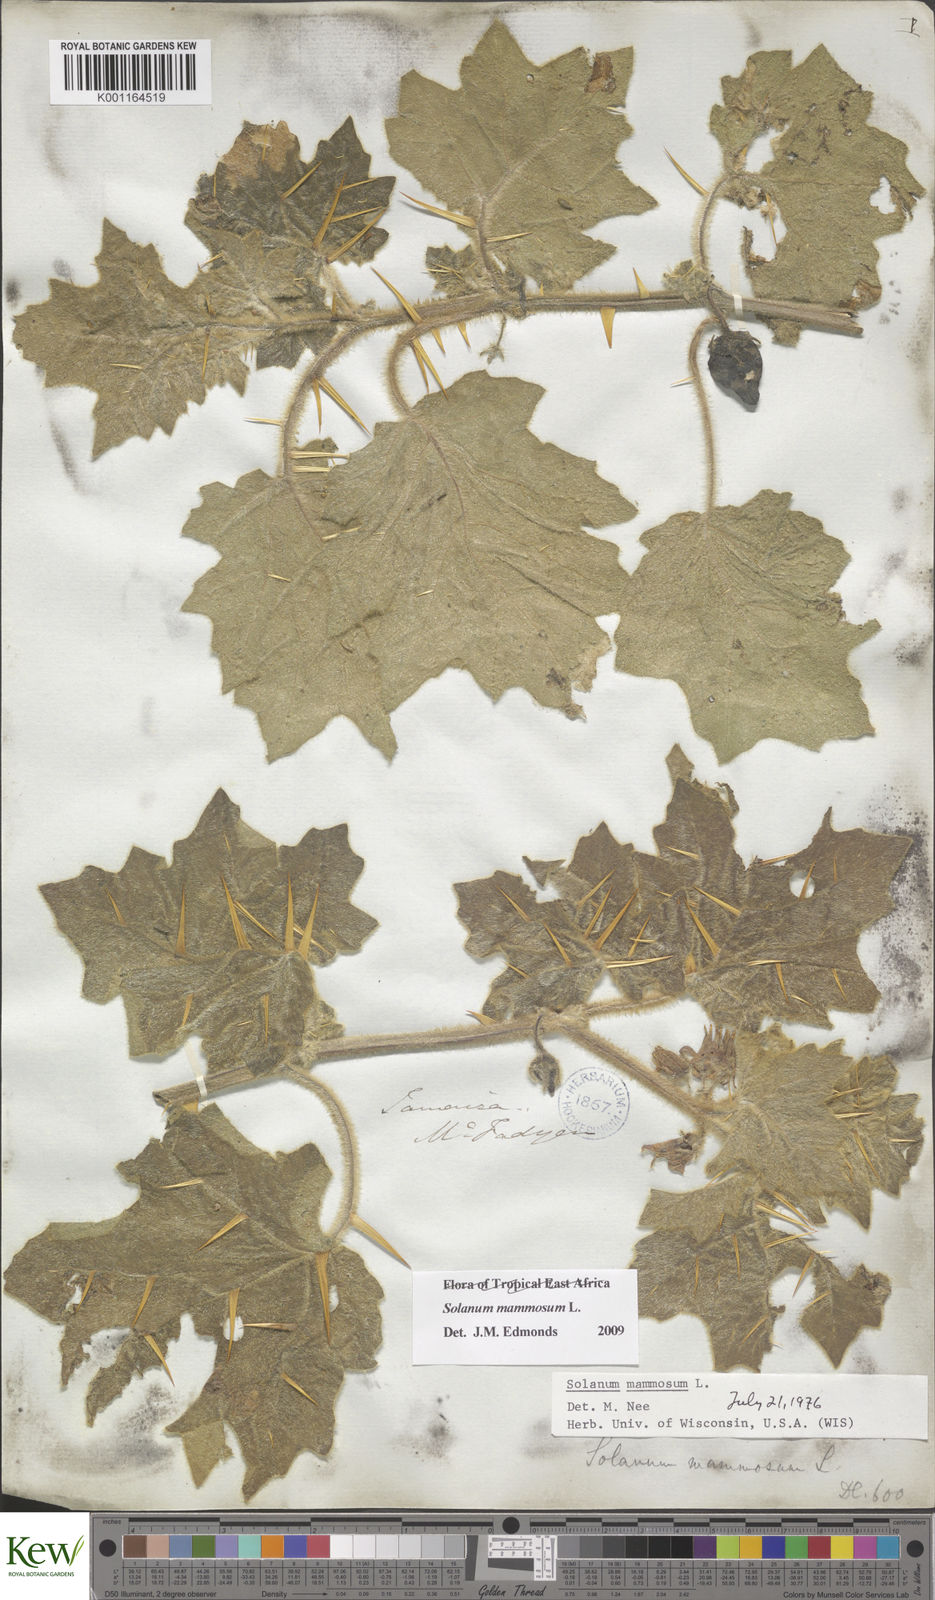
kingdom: Plantae
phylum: Tracheophyta
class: Magnoliopsida
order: Solanales
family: Solanaceae
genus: Solanum
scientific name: Solanum mammosum
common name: Nipple fruit
